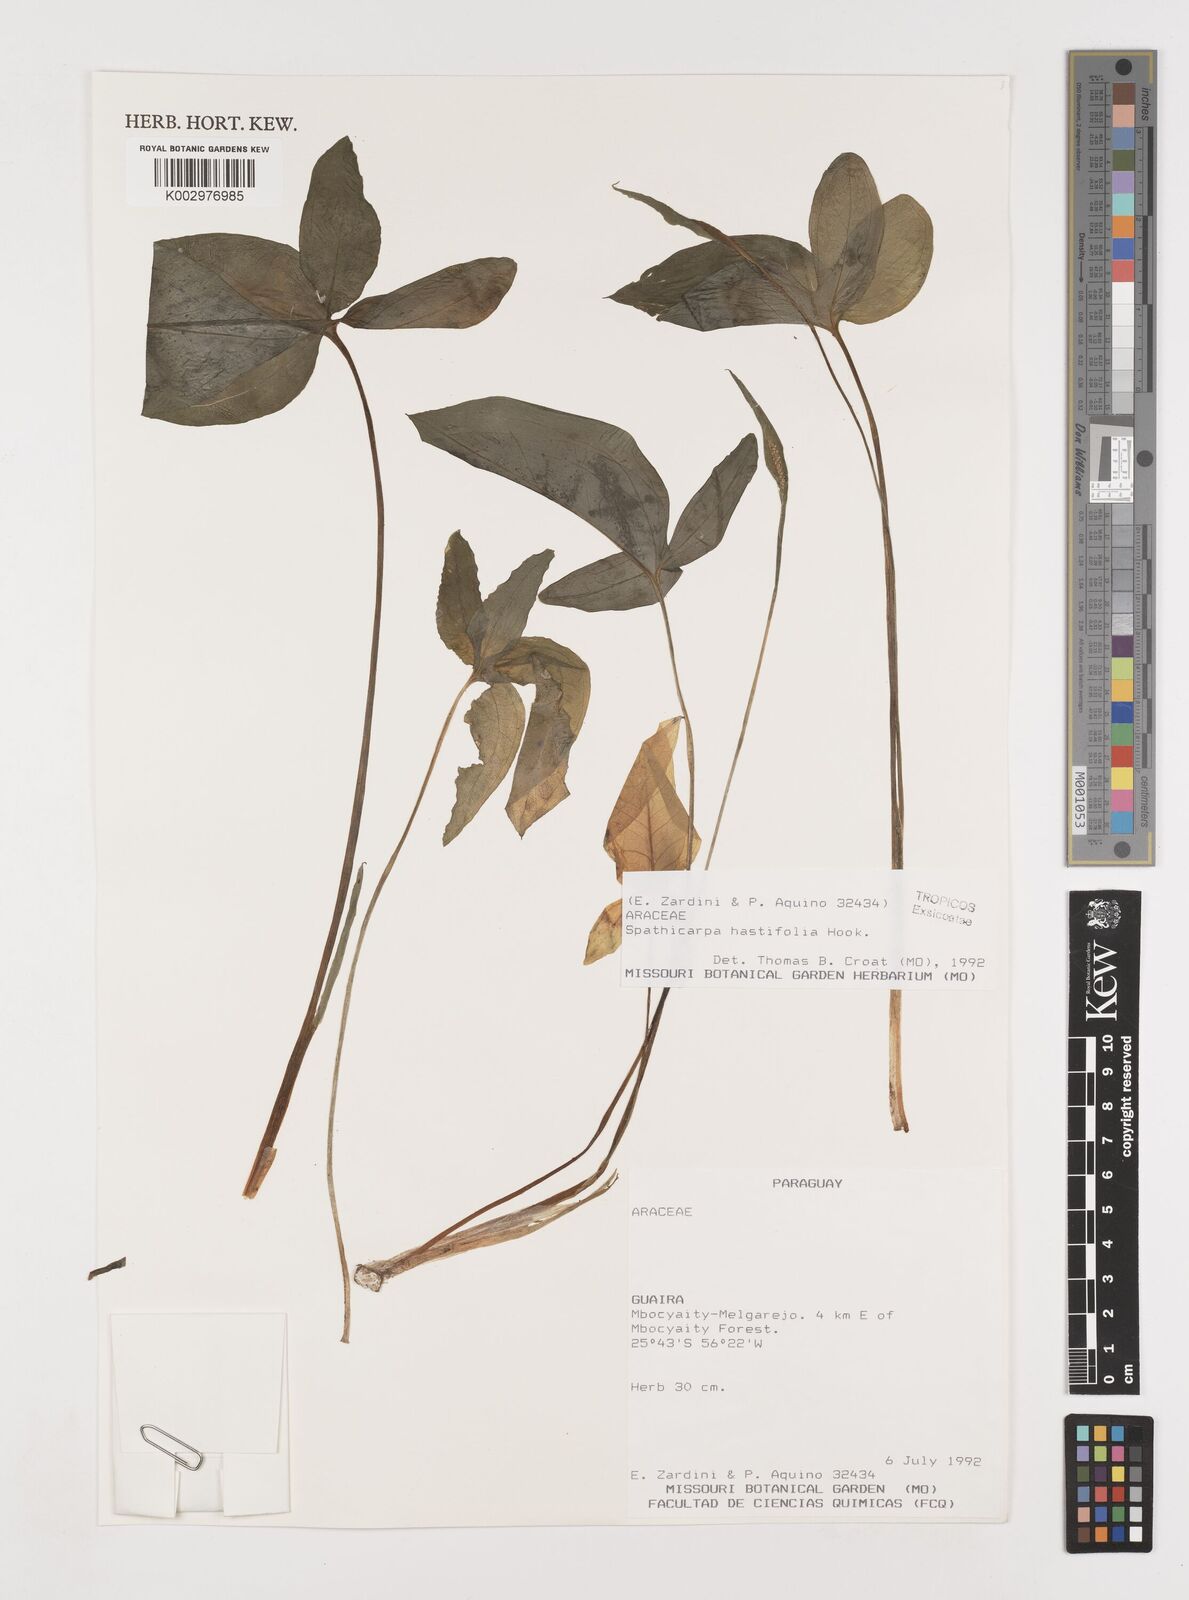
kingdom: Plantae
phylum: Tracheophyta
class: Liliopsida
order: Alismatales
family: Araceae
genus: Spathicarpa
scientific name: Spathicarpa hastifolia
